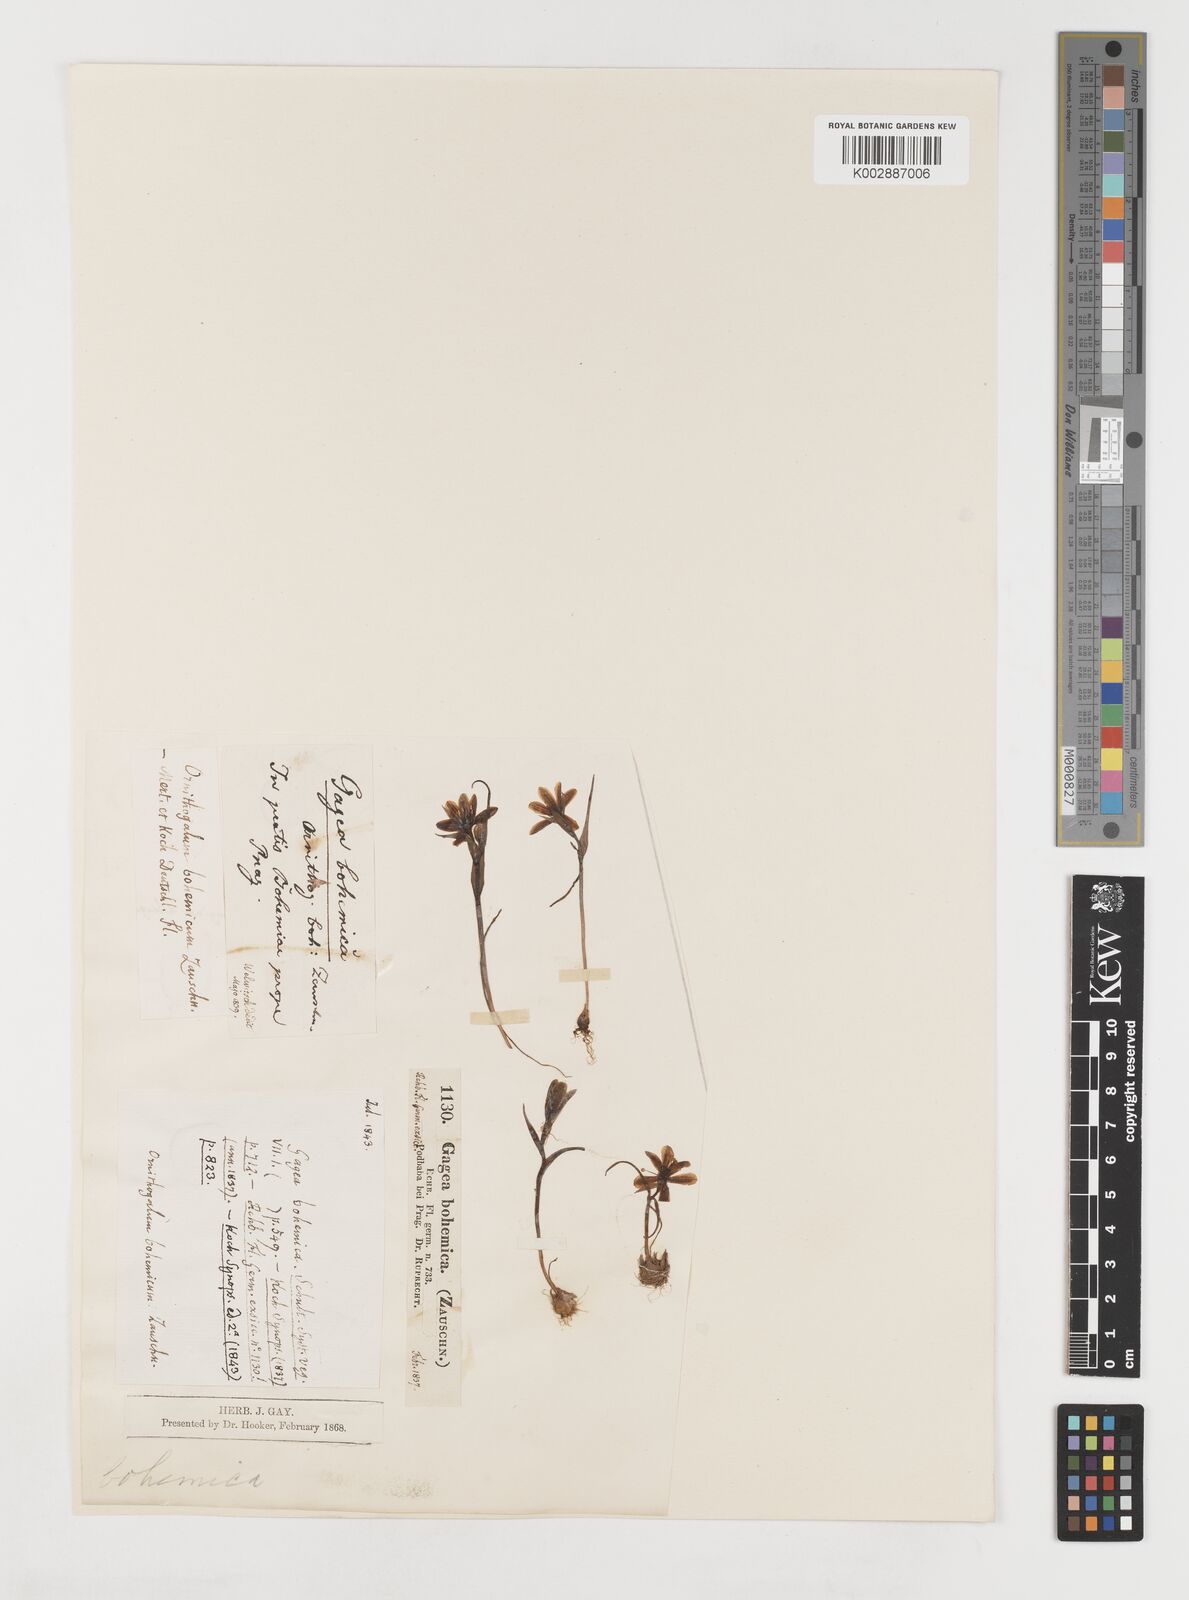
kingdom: Plantae
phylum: Tracheophyta
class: Liliopsida
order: Liliales
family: Liliaceae
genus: Gagea
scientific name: Gagea bohemica
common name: Early star-of-bethlehem
